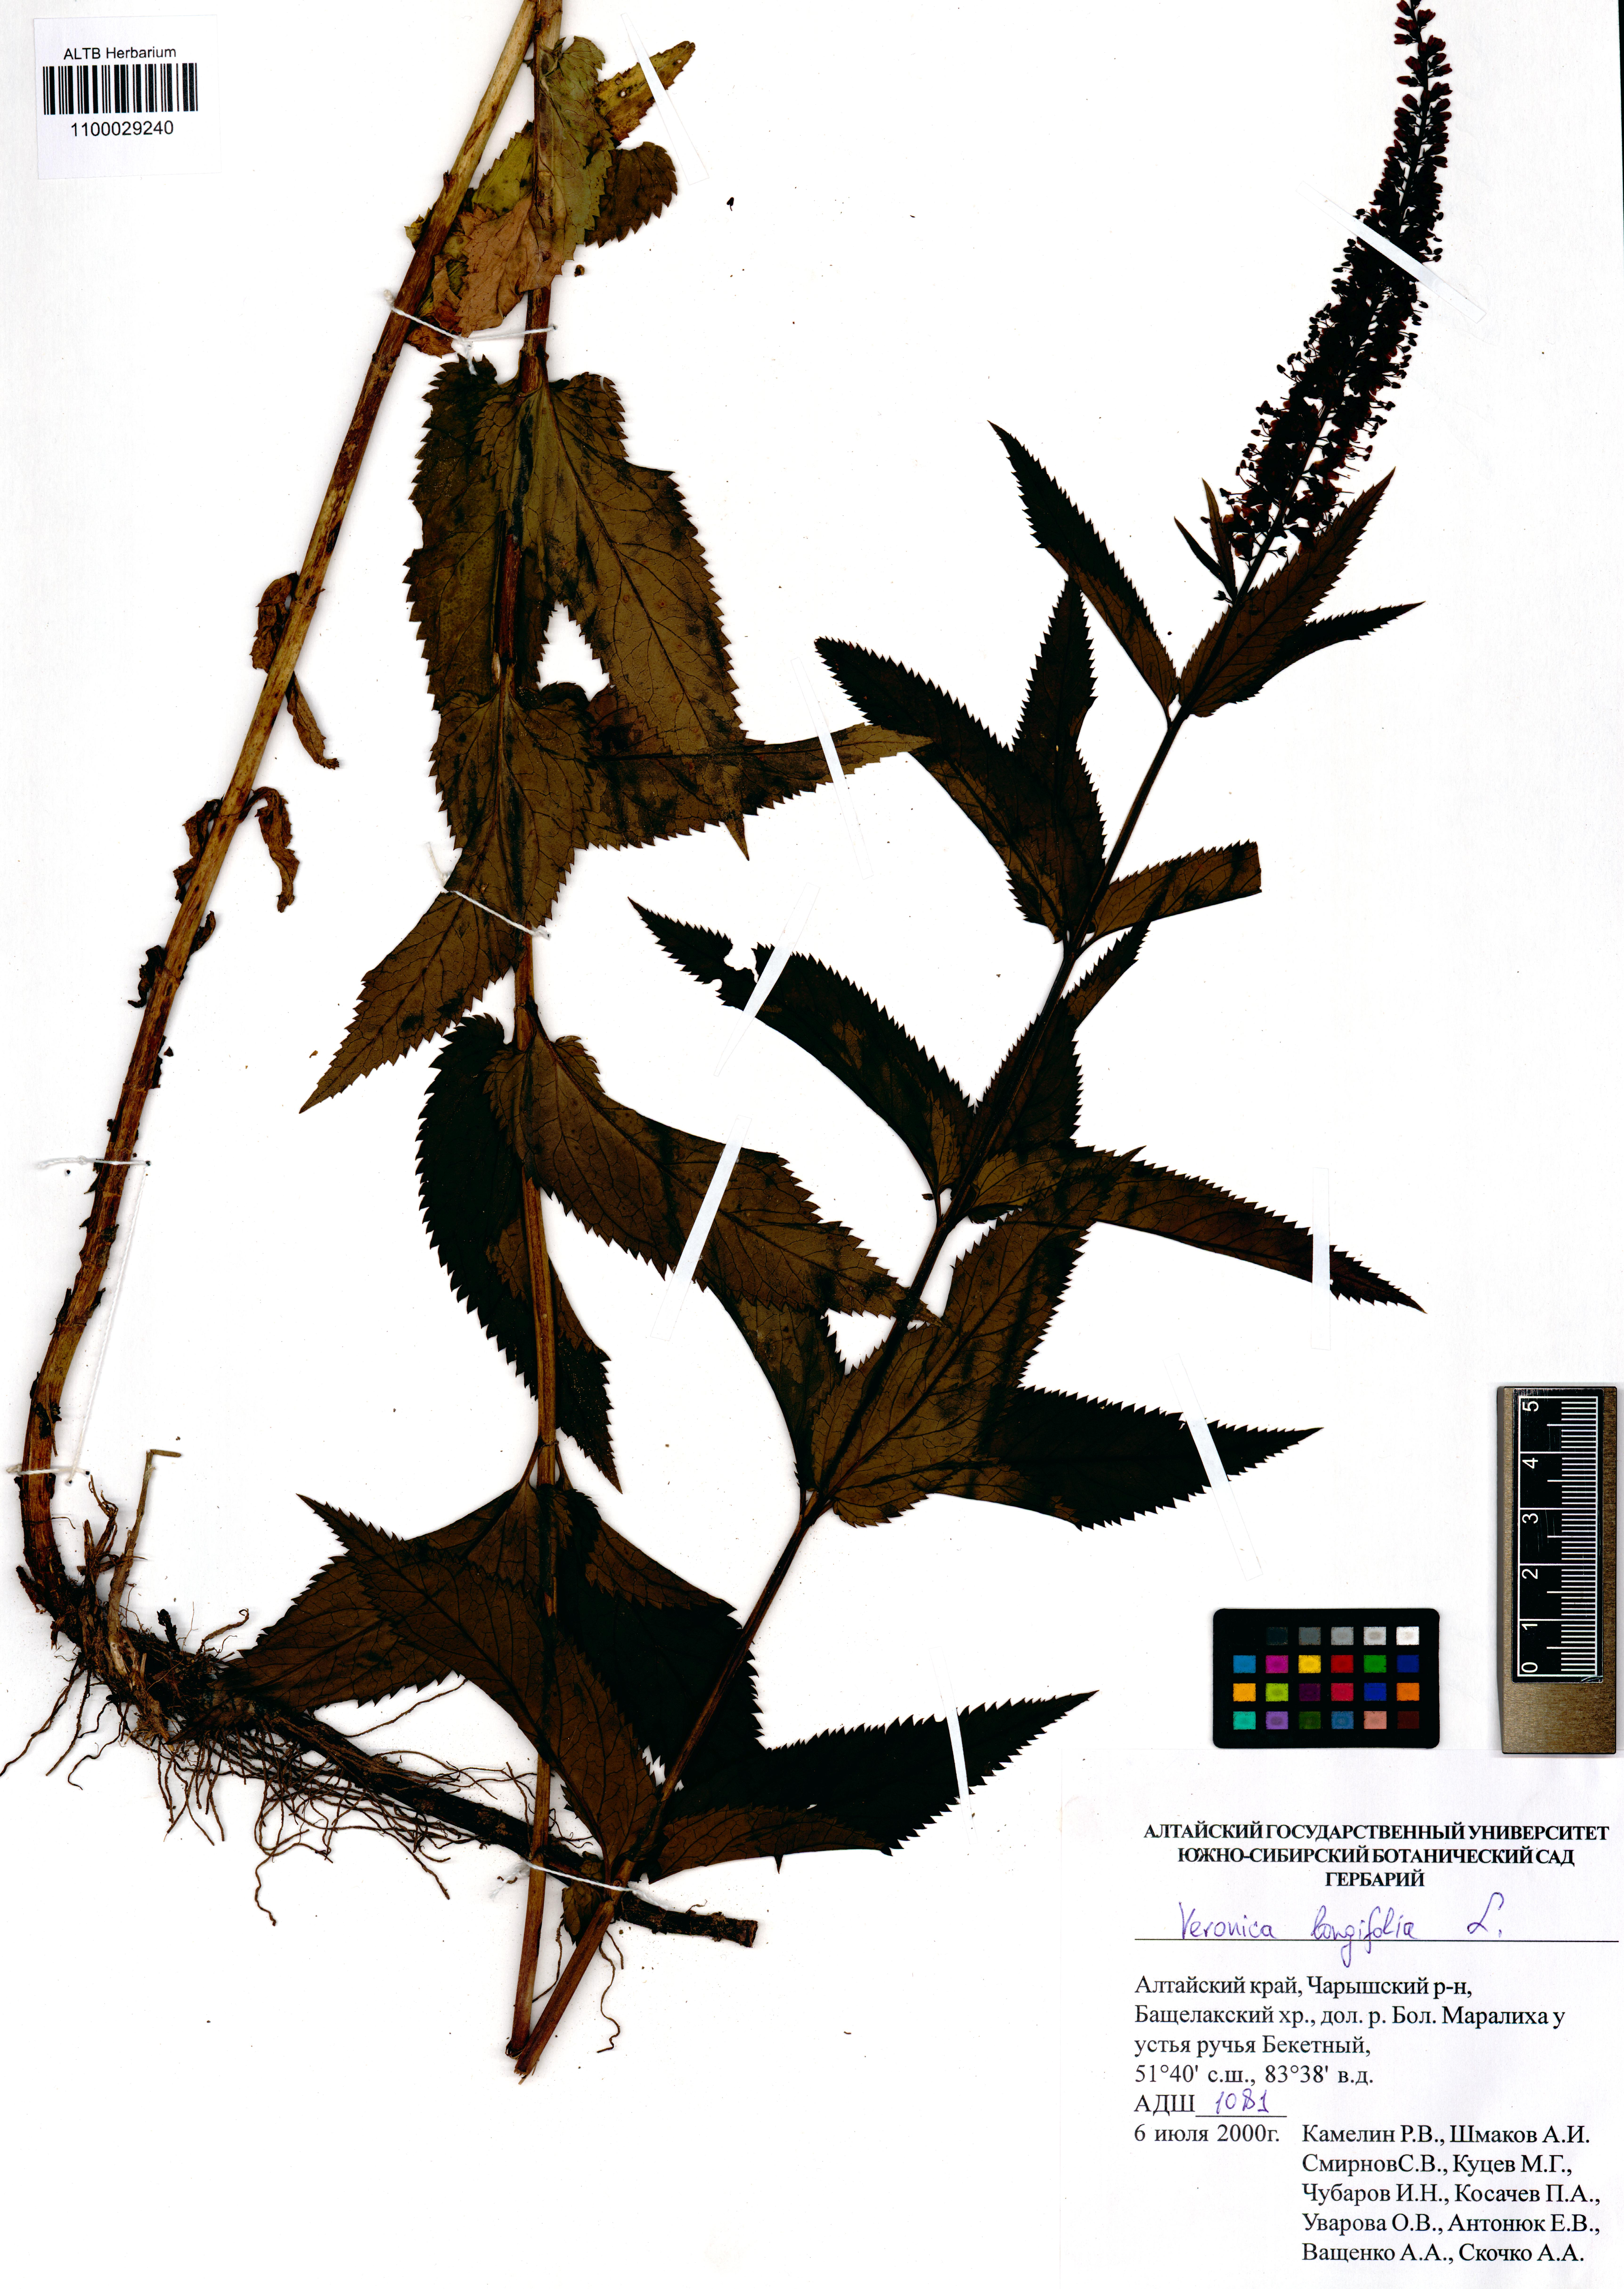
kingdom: Plantae
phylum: Tracheophyta
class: Magnoliopsida
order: Lamiales
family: Plantaginaceae
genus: Veronica
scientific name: Veronica longifolia
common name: Garden speedwell
